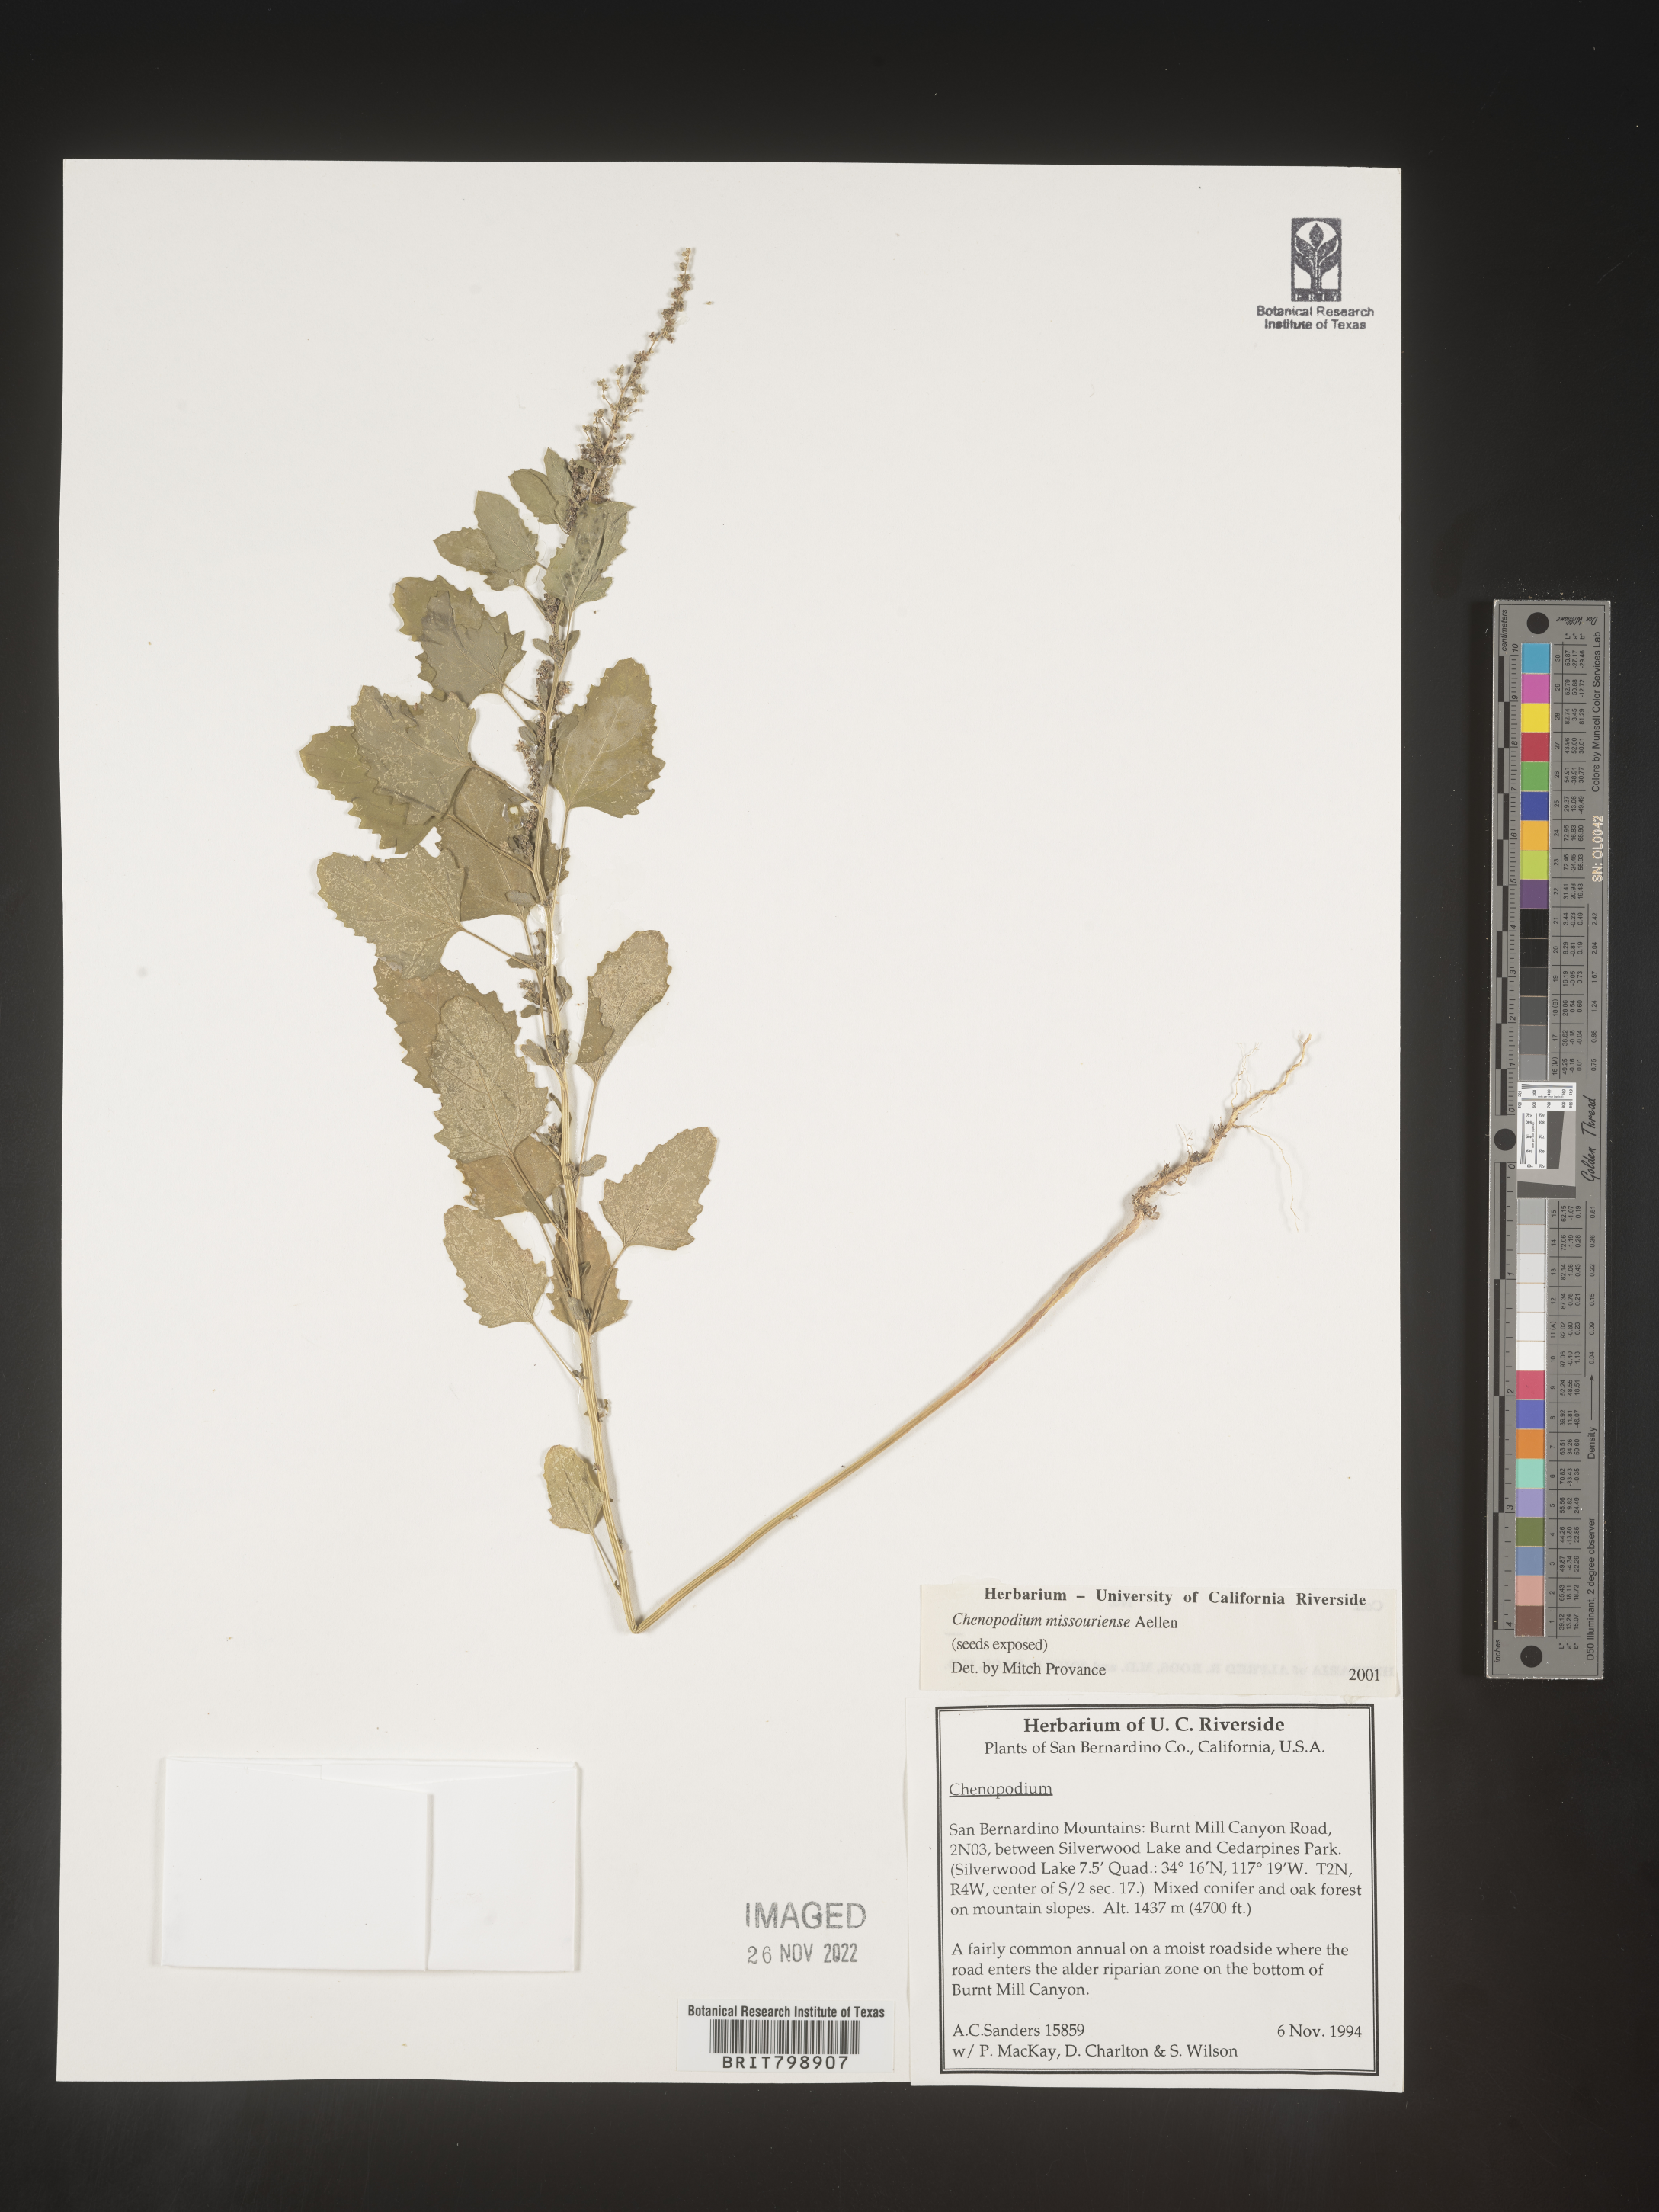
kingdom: Plantae
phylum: Tracheophyta
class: Magnoliopsida
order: Caryophyllales
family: Amaranthaceae
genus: Chenopodium
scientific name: Chenopodium album
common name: Fat-hen
